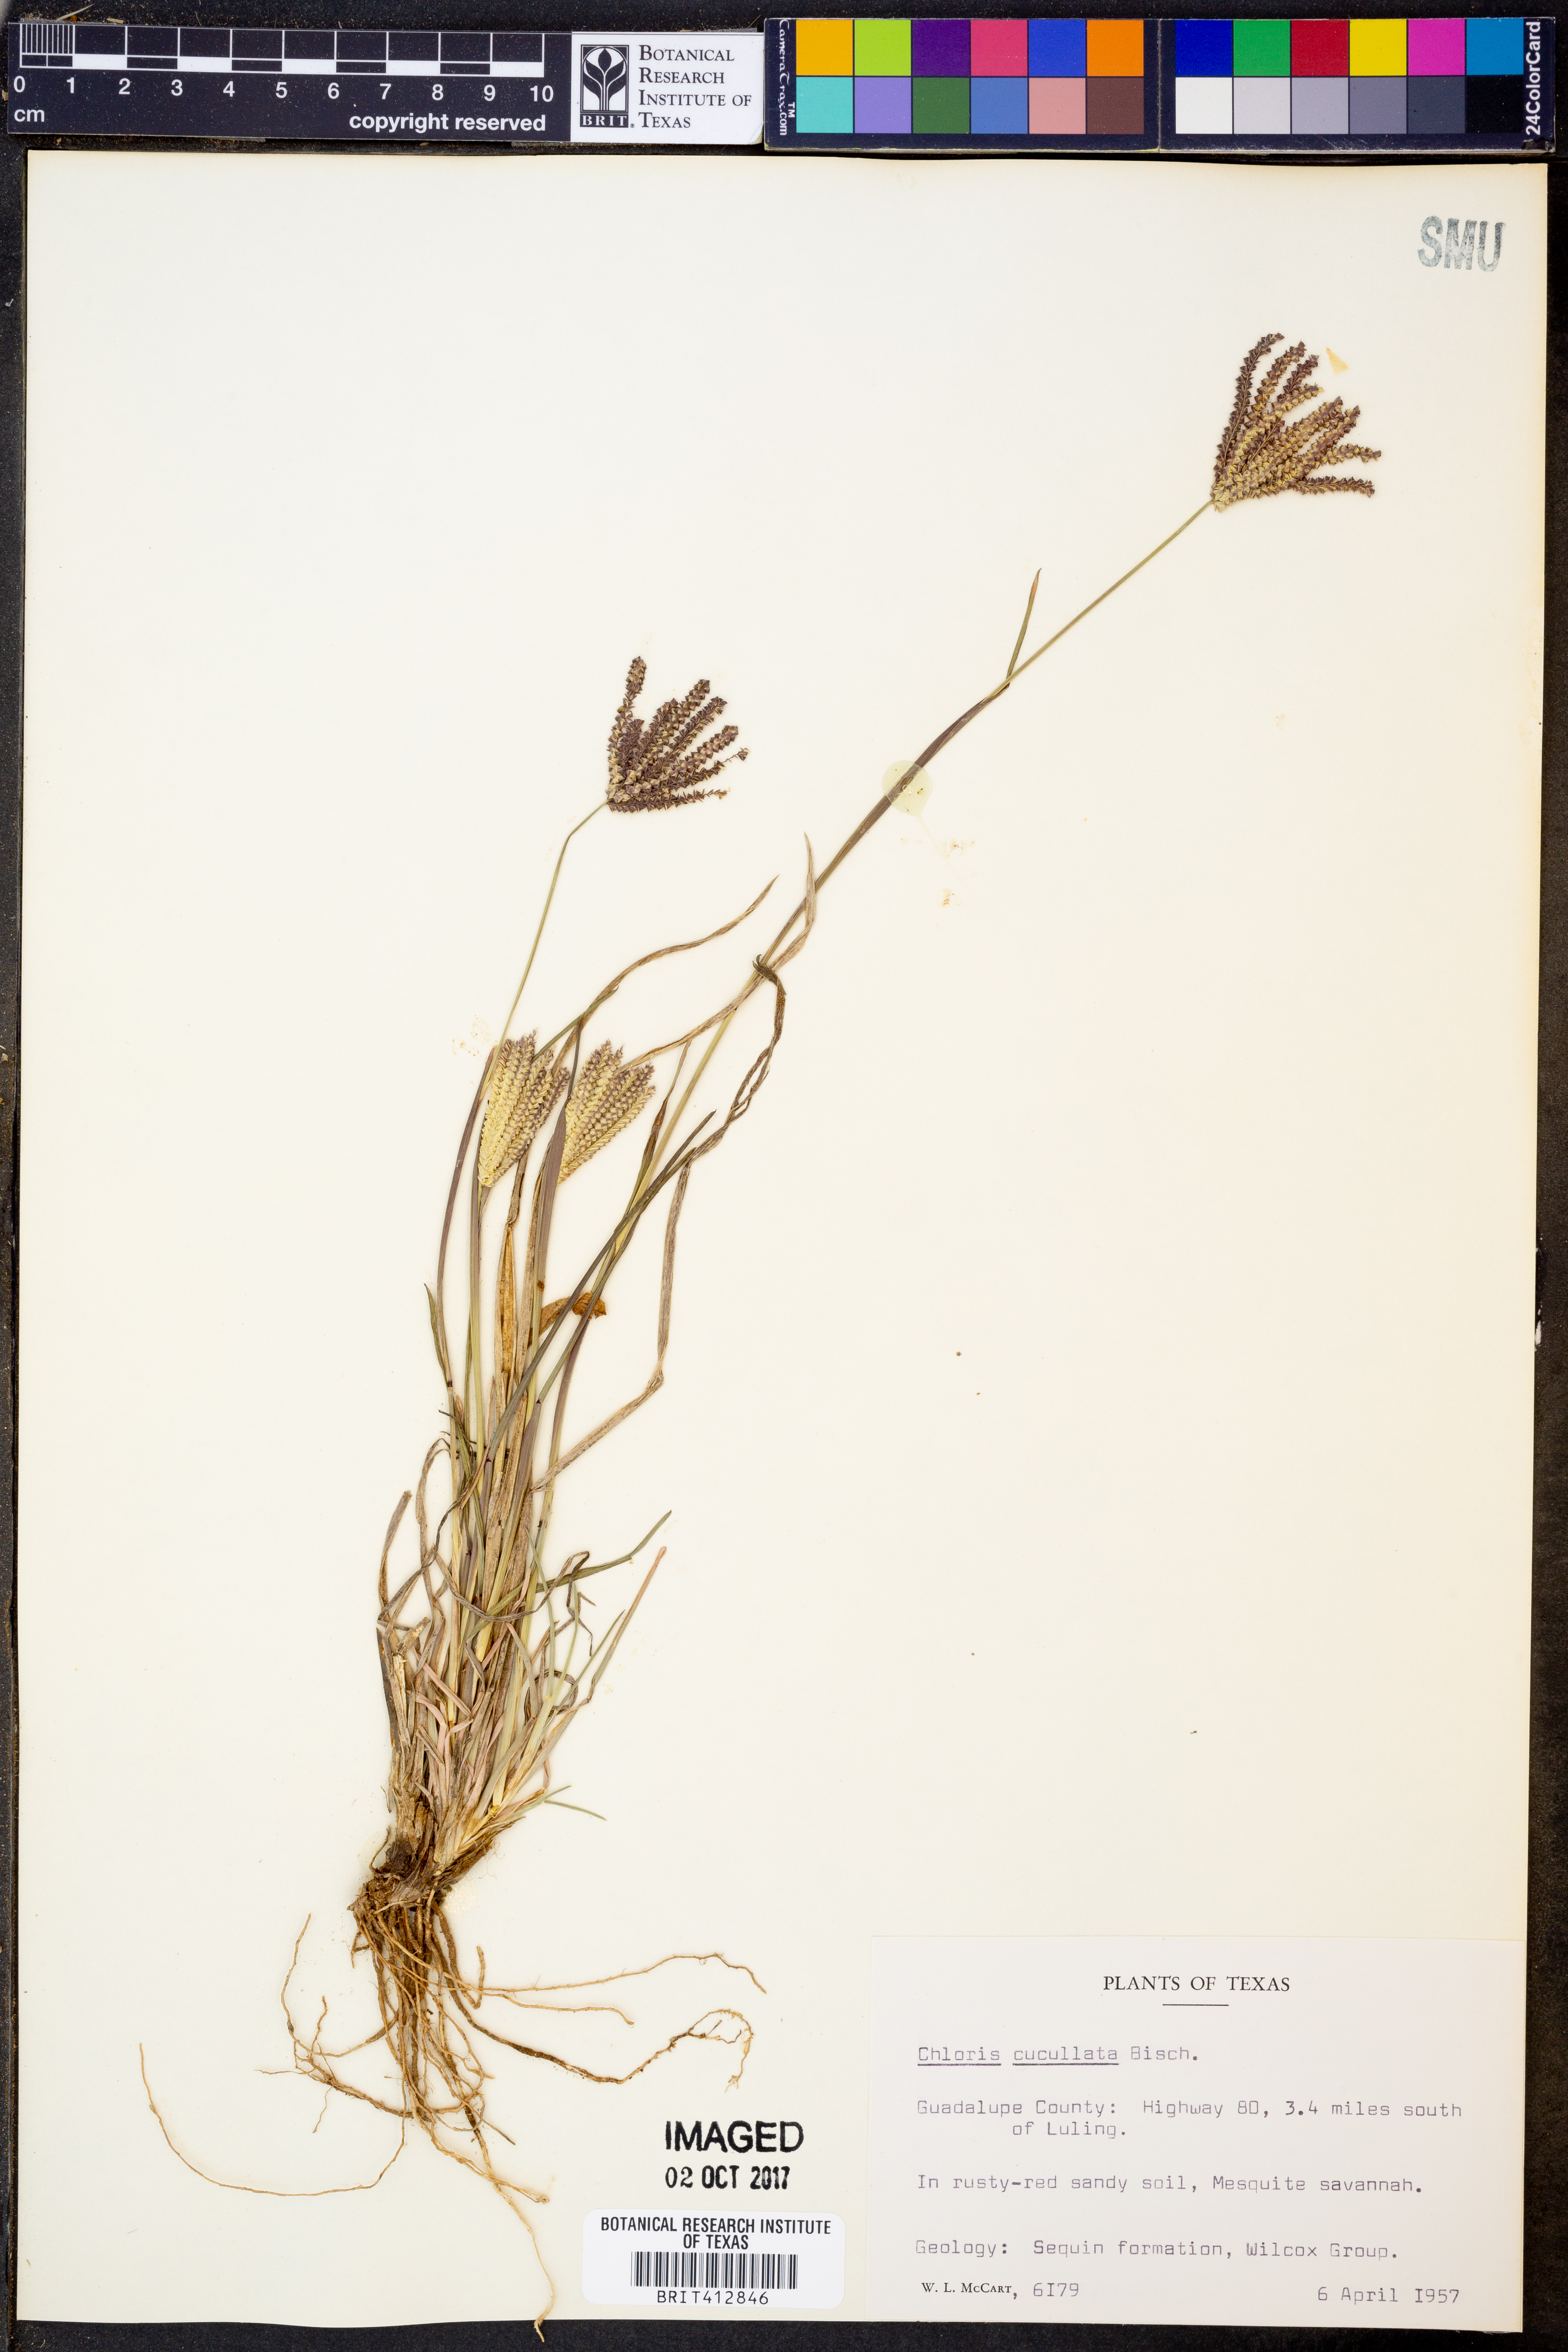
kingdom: Plantae
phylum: Tracheophyta
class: Liliopsida
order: Poales
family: Poaceae
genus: Chloris
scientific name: Chloris cucullata
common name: Hooded windmill grass
